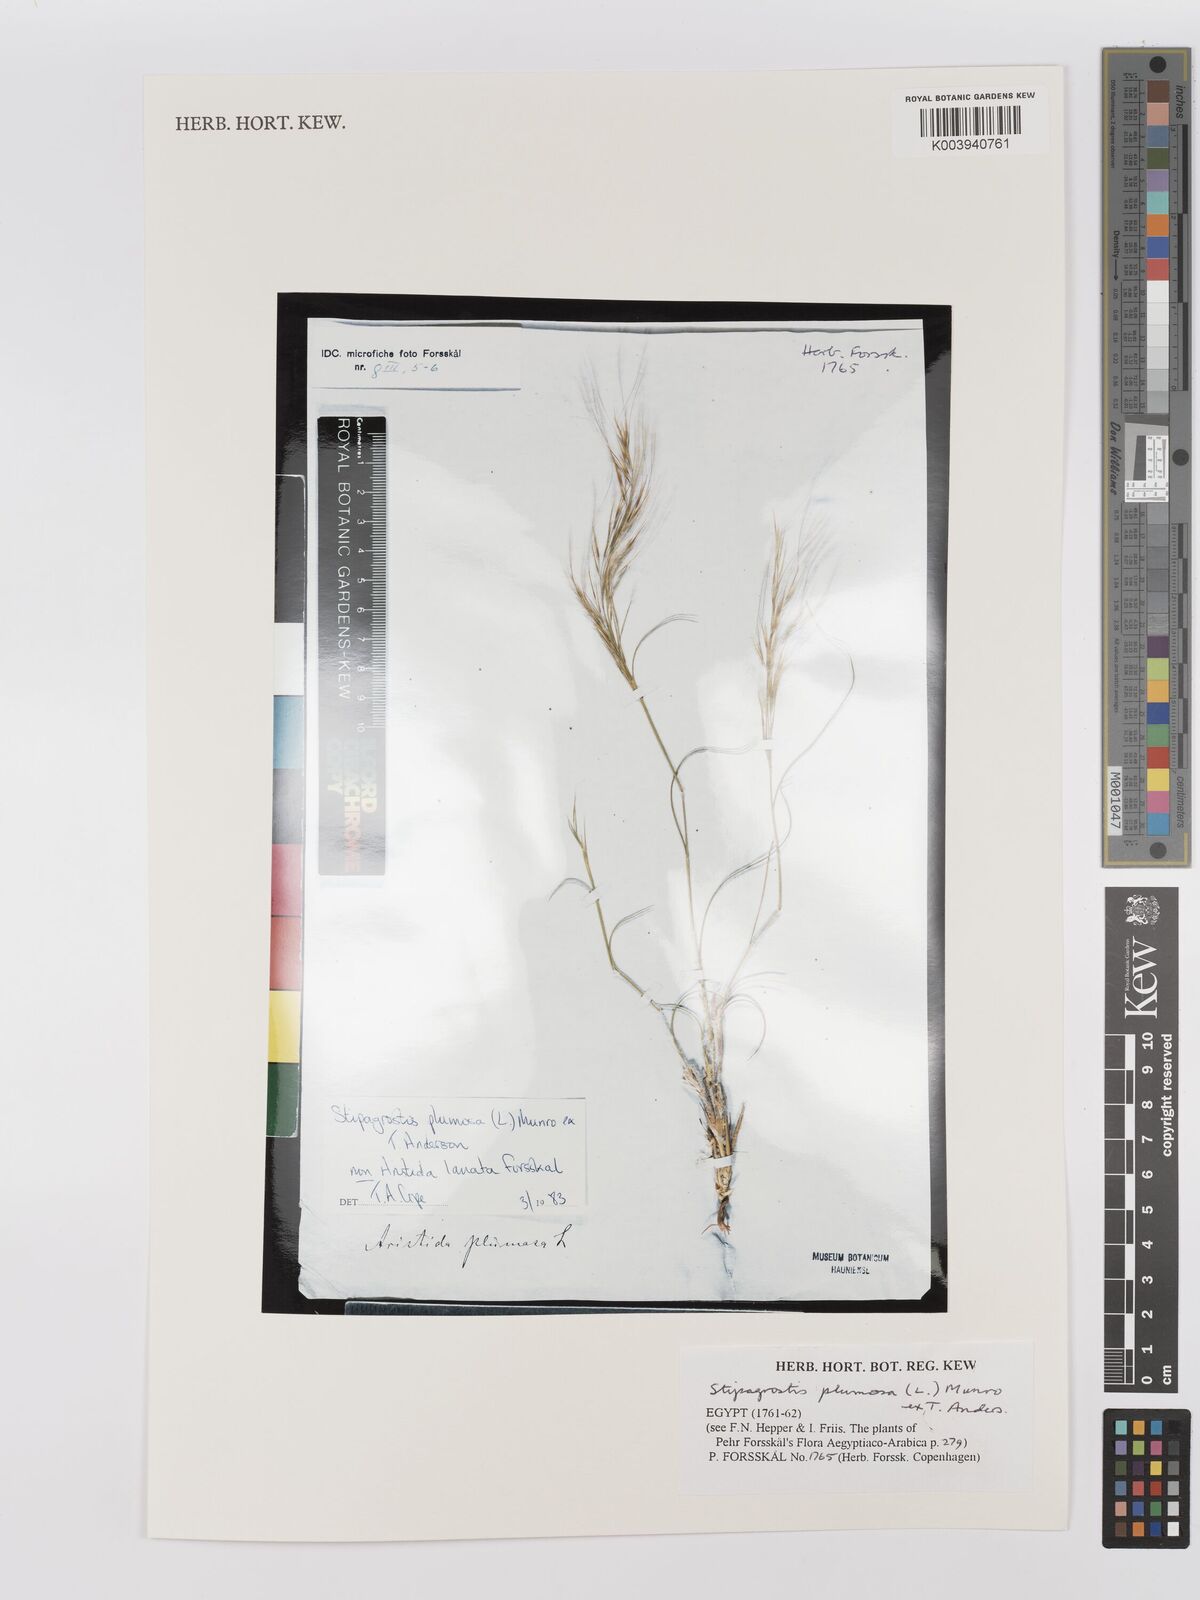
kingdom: Plantae
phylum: Tracheophyta
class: Liliopsida
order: Poales
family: Poaceae
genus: Stipagrostis
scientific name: Stipagrostis plumosa
